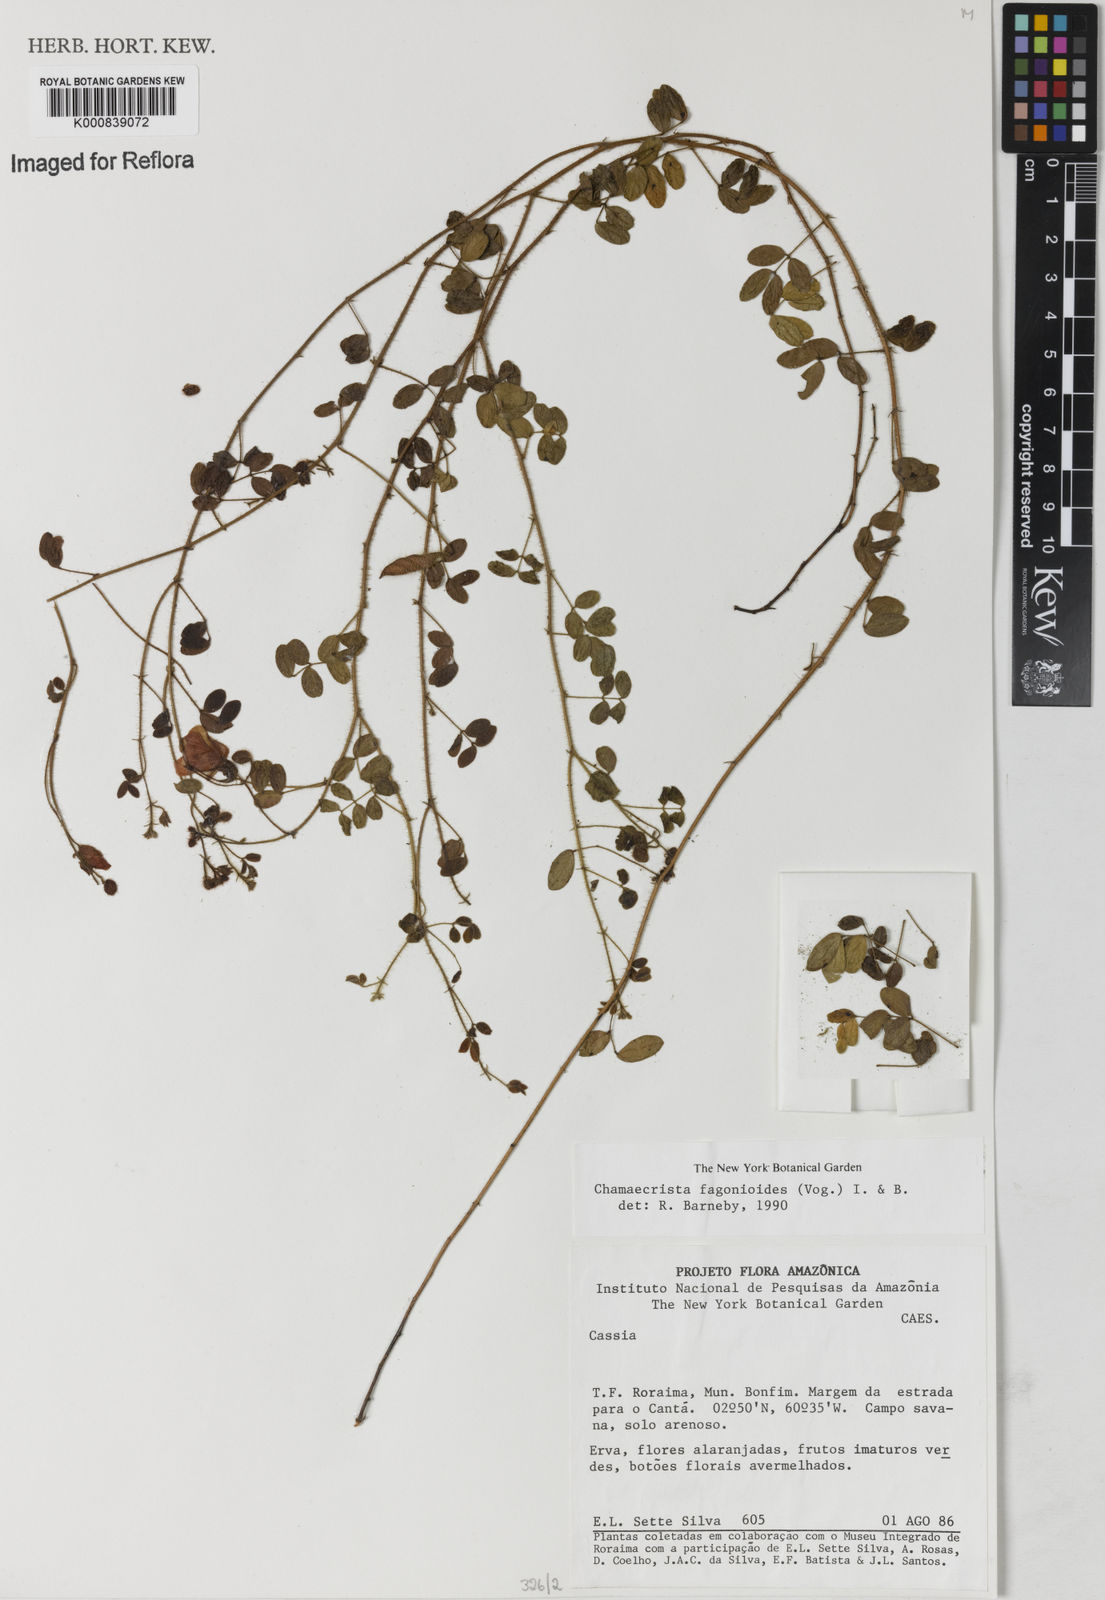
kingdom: Plantae
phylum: Tracheophyta
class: Magnoliopsida
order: Fabales
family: Fabaceae
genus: Chamaecrista
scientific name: Chamaecrista fagonioides
